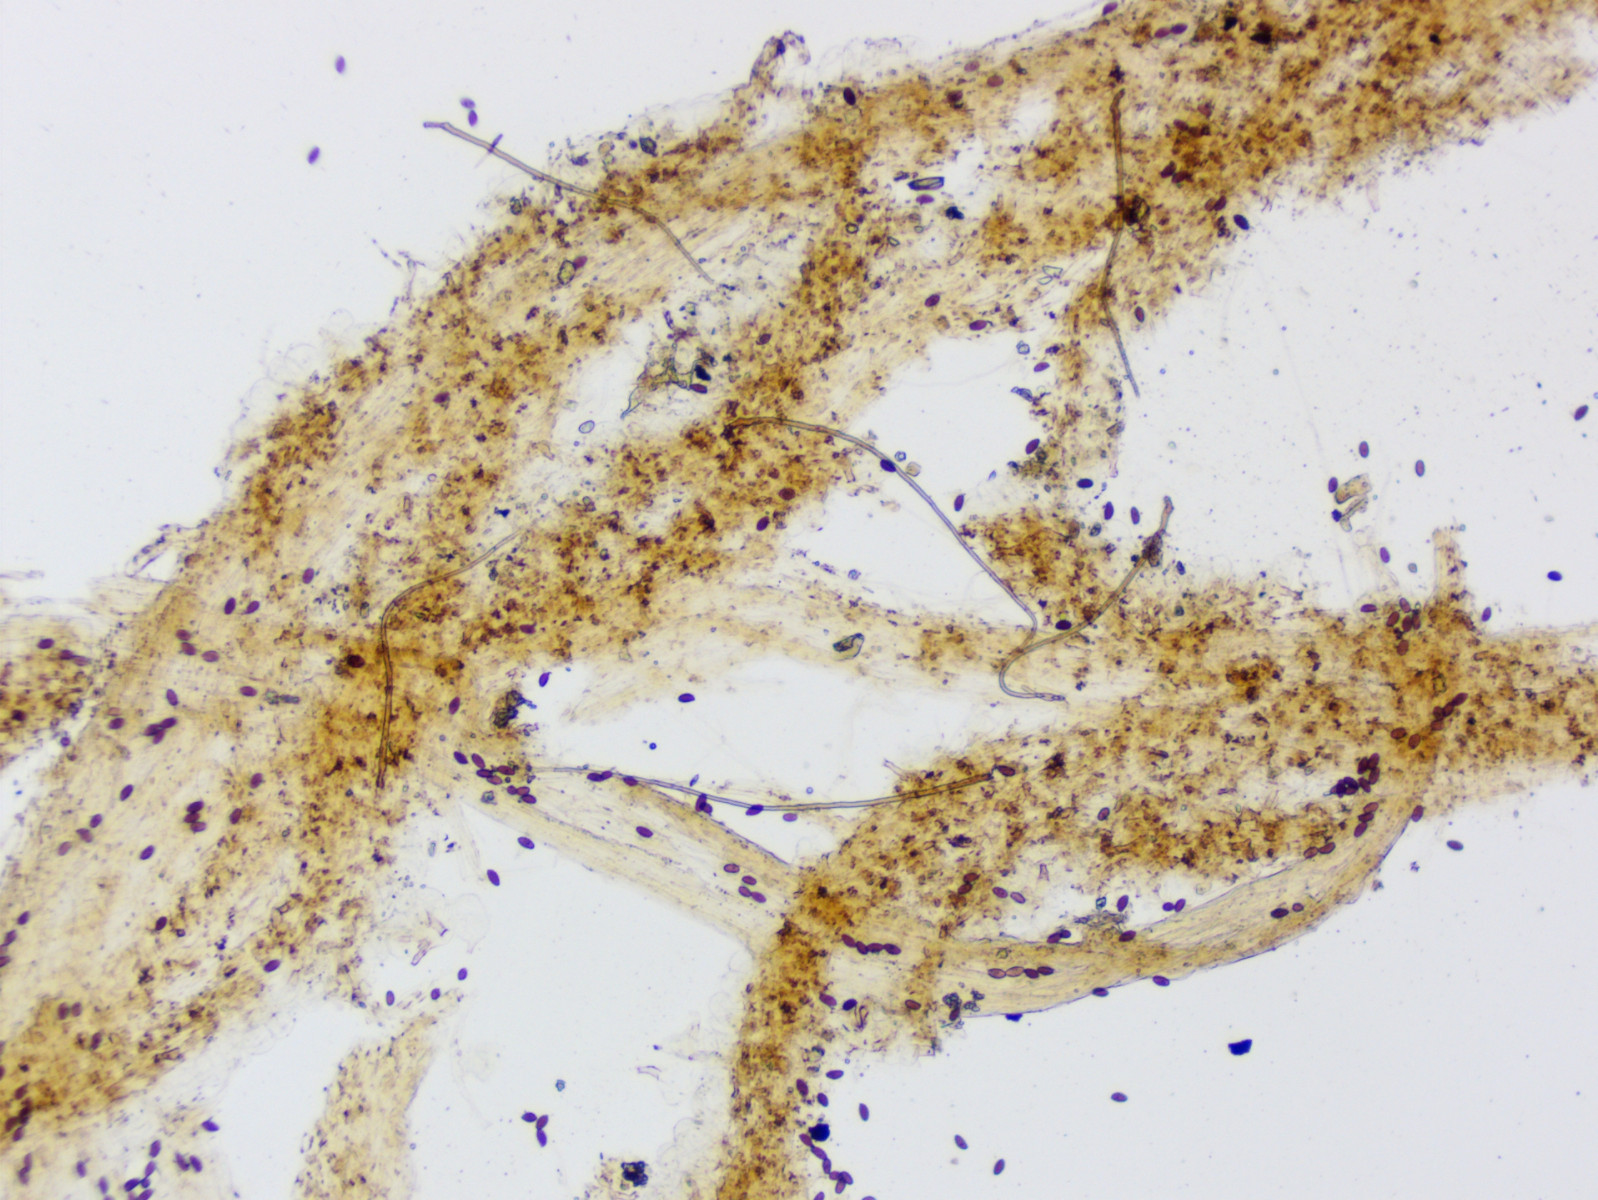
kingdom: Fungi
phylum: Basidiomycota
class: Agaricomycetes
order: Agaricales
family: Psathyrellaceae
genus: Parasola
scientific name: Parasola auricoma
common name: hansens hjulhat
